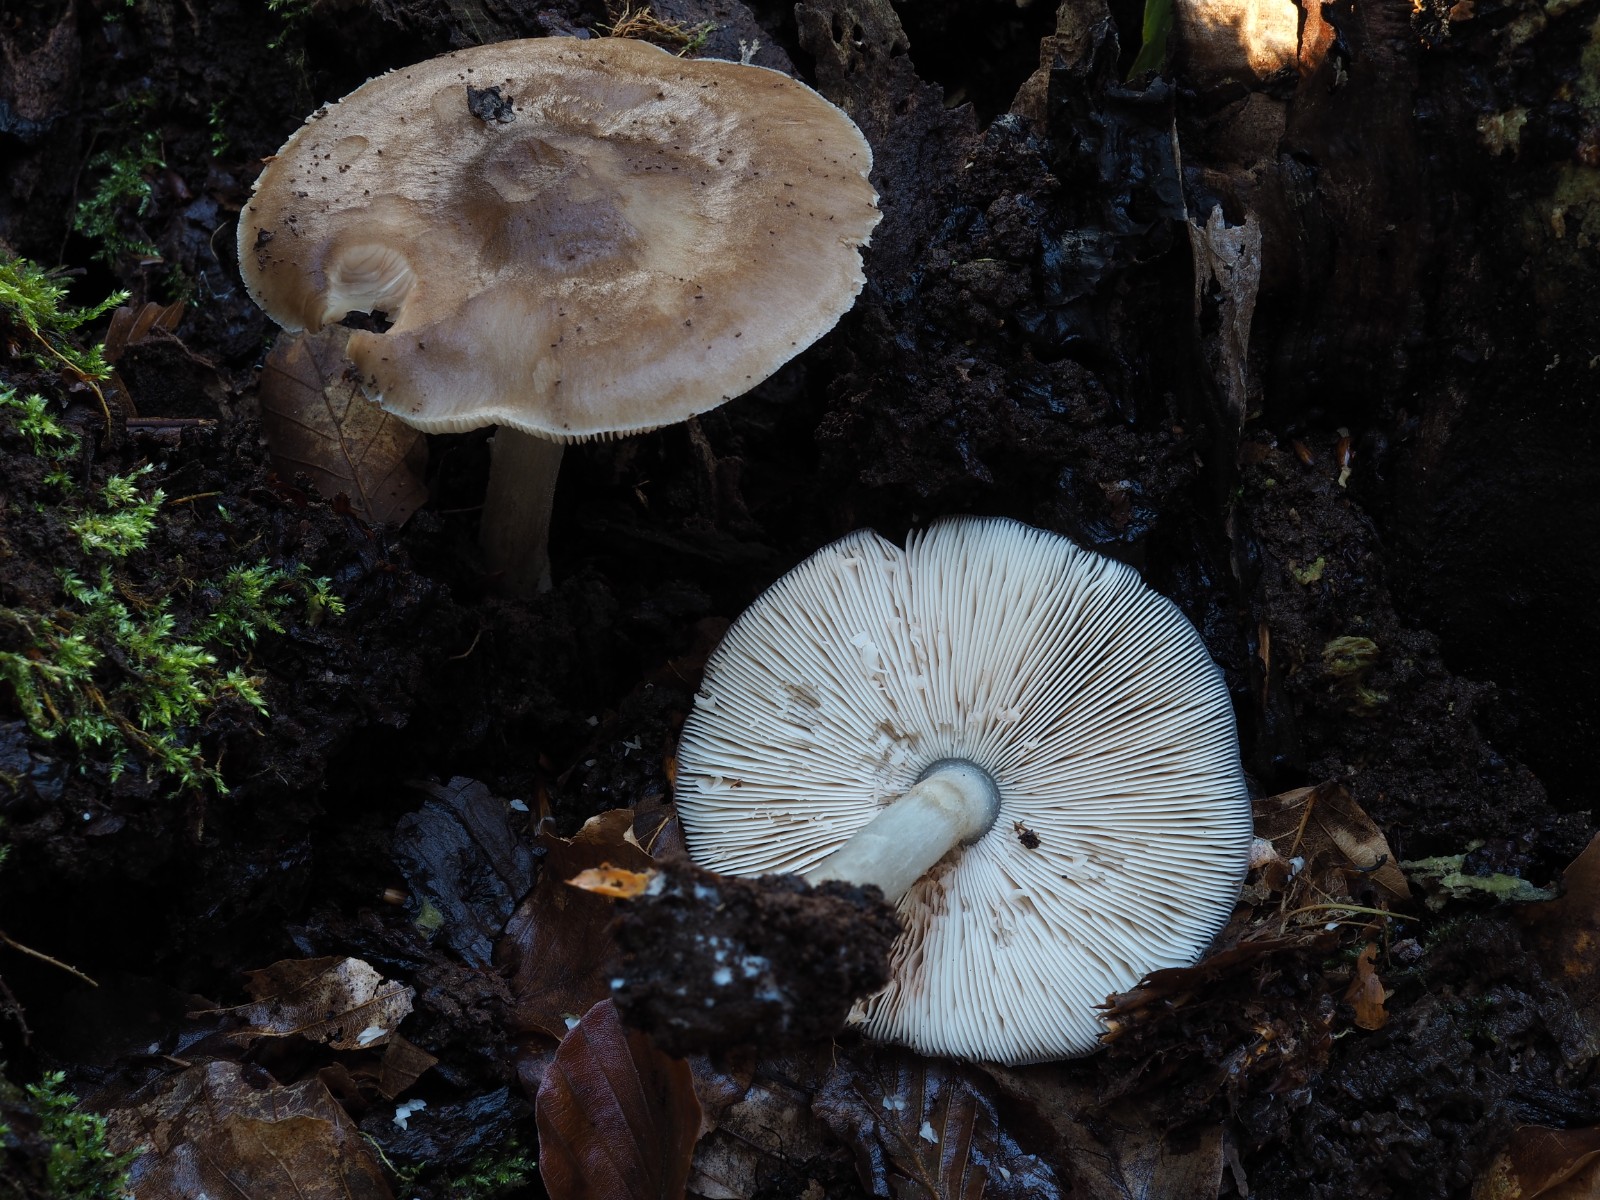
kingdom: Fungi
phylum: Basidiomycota
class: Agaricomycetes
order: Agaricales
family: Pluteaceae
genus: Pluteus
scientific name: Pluteus cervinus
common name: sodfarvet skærmhat
